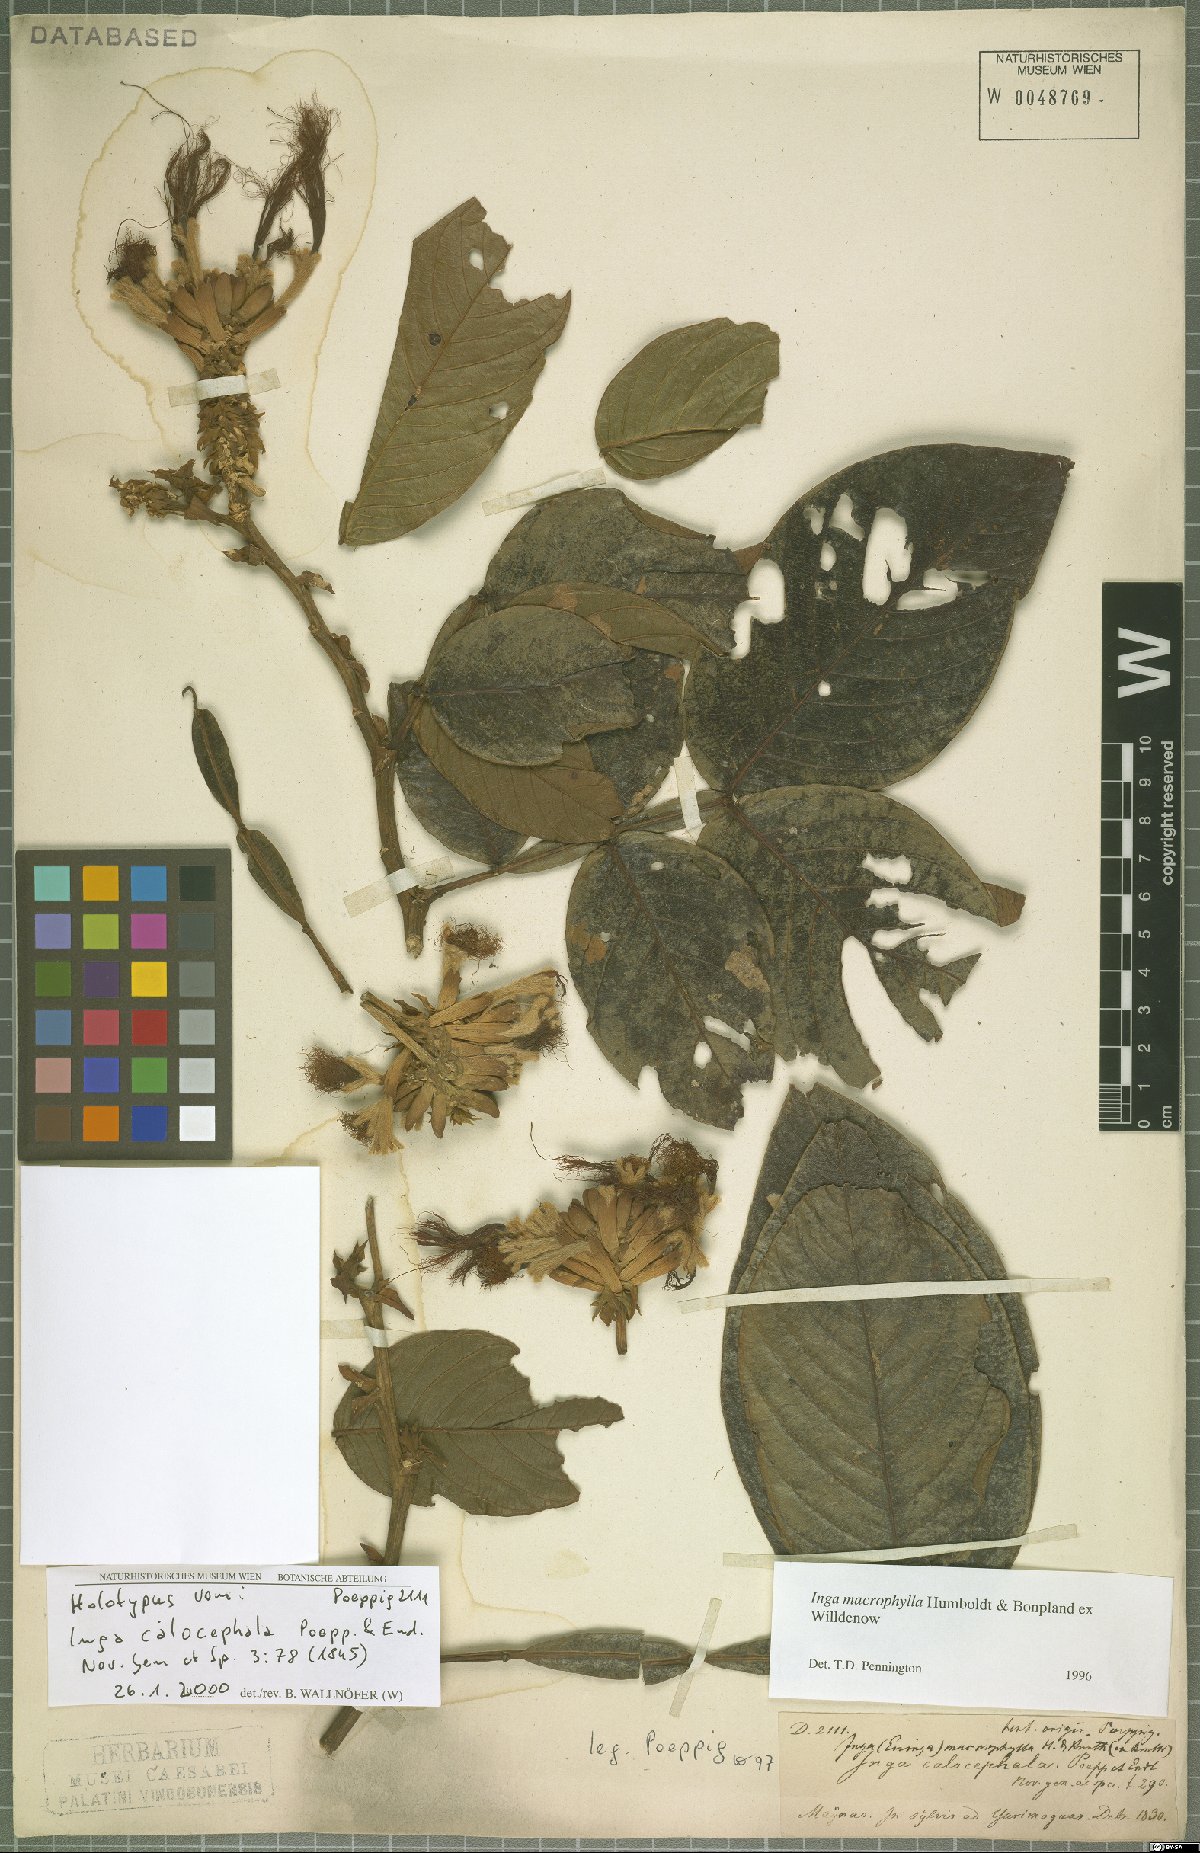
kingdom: Plantae
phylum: Tracheophyta
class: Magnoliopsida
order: Fabales
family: Fabaceae
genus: Inga
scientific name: Inga macrophylla
